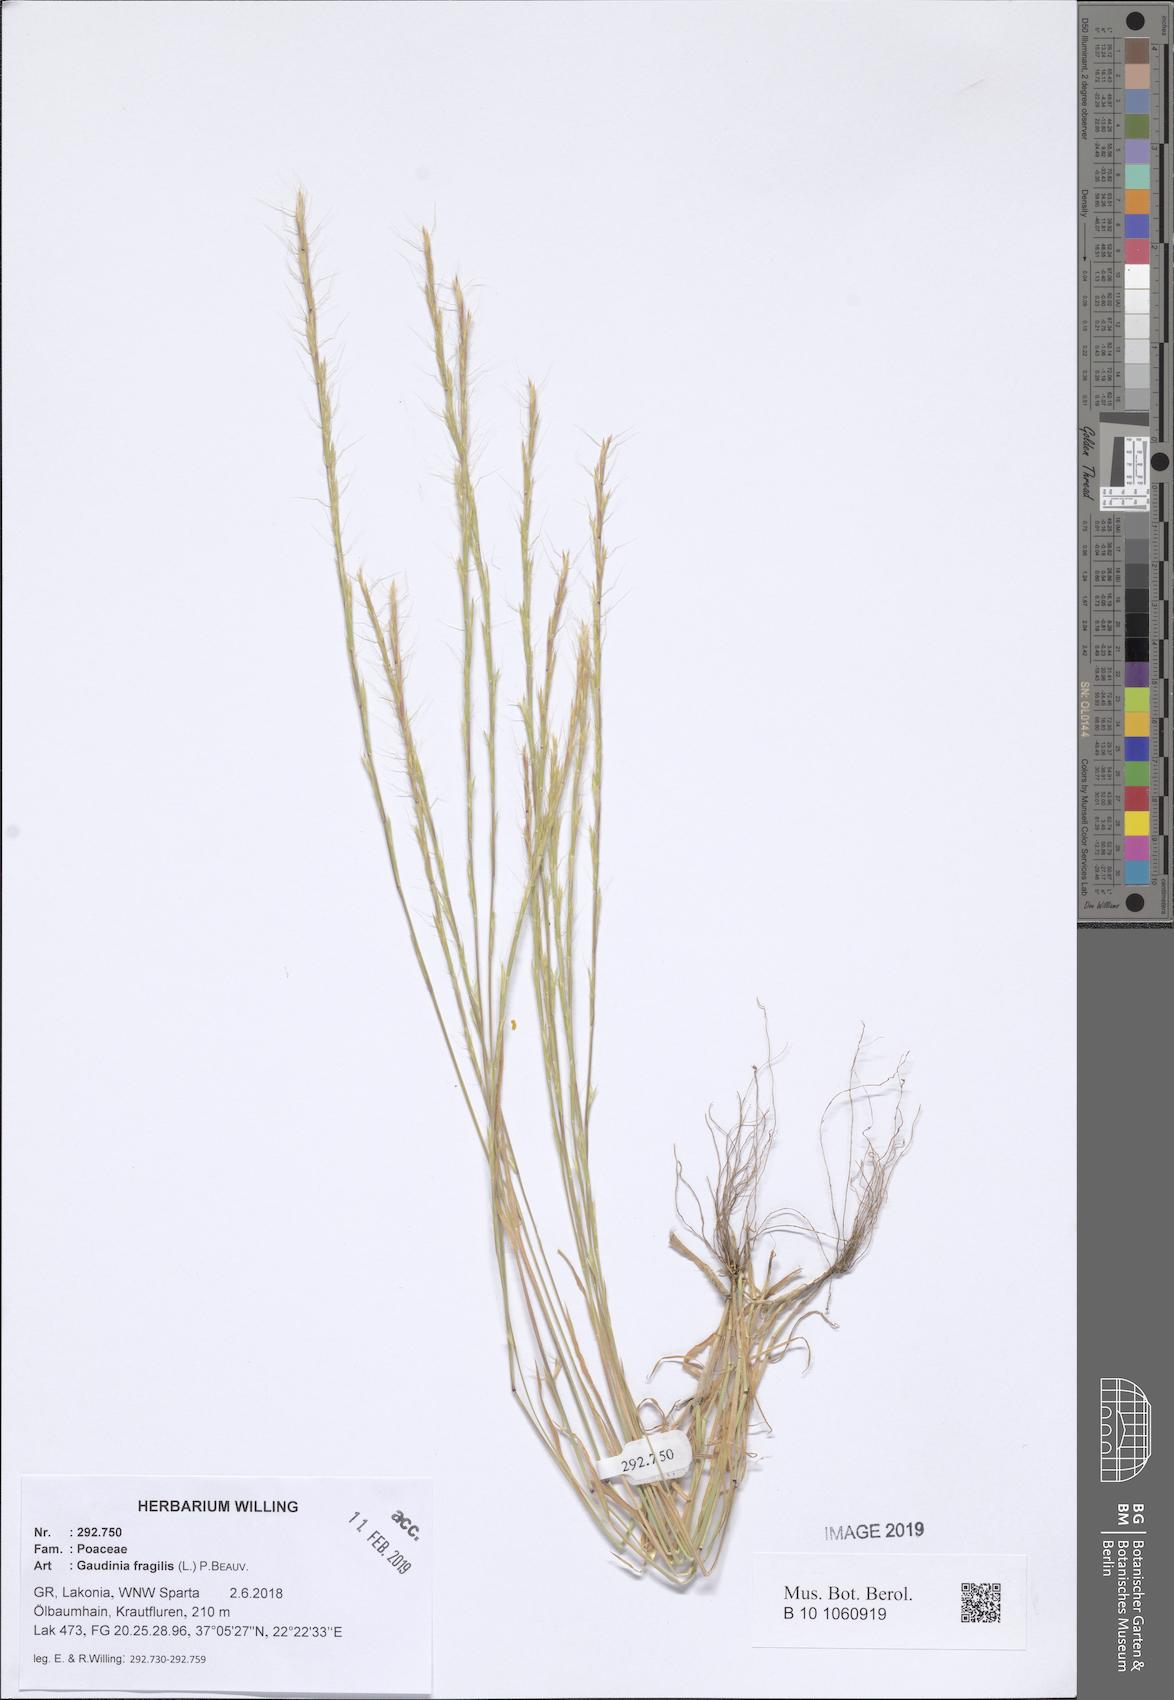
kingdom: Plantae
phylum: Tracheophyta
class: Liliopsida
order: Poales
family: Poaceae
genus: Gaudinia
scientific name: Gaudinia fragilis
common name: French oat-grass
